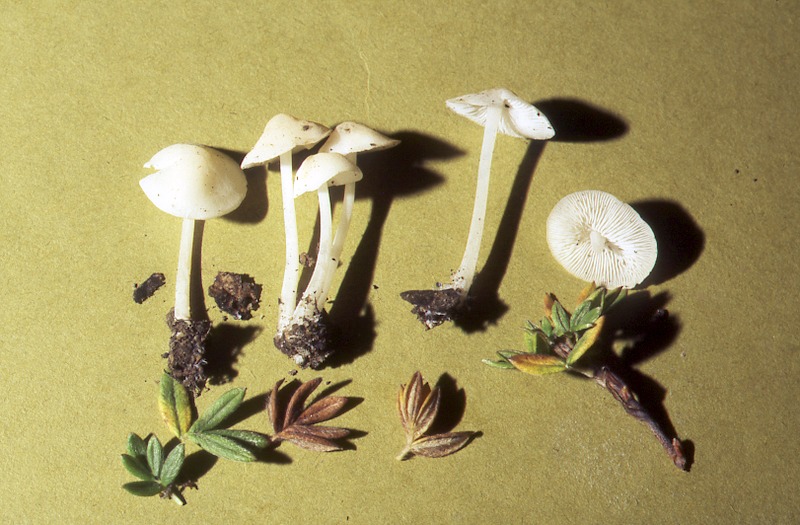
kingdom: Fungi
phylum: Basidiomycota
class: Agaricomycetes
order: Agaricales
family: Mycenaceae
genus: Hemimycena
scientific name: Hemimycena cucullata
